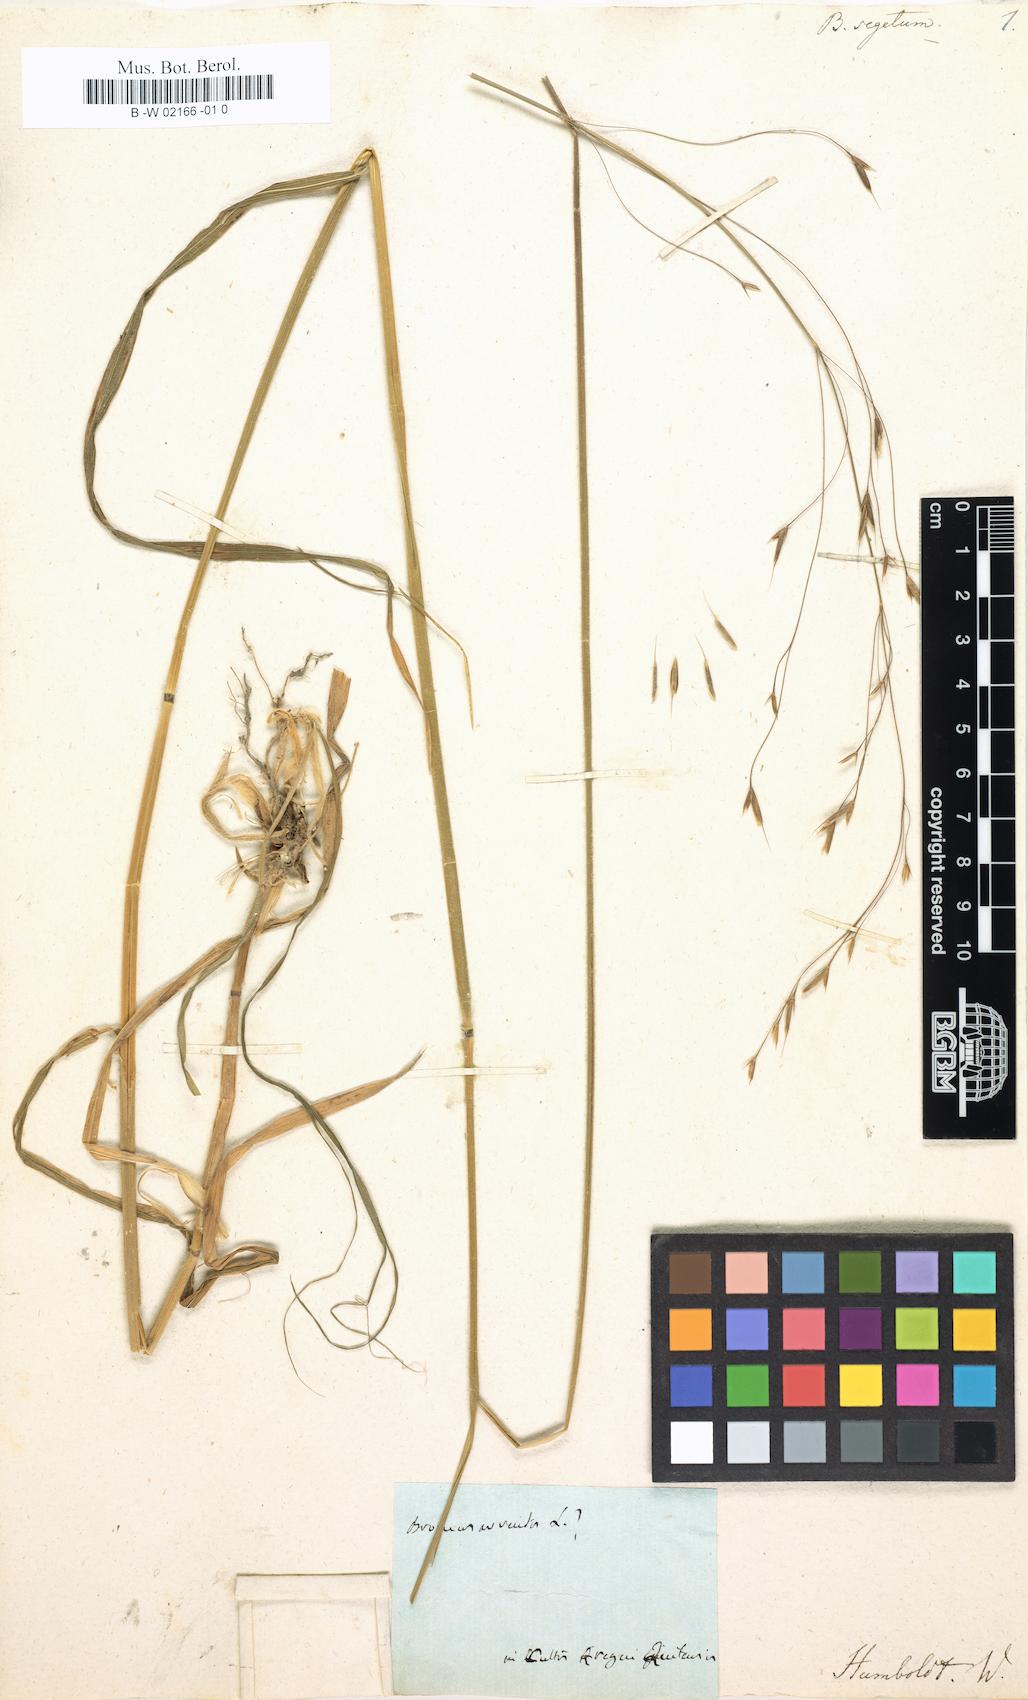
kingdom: Plantae
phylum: Tracheophyta
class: Liliopsida
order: Poales
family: Poaceae
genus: Bromus
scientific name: Bromus segetum
